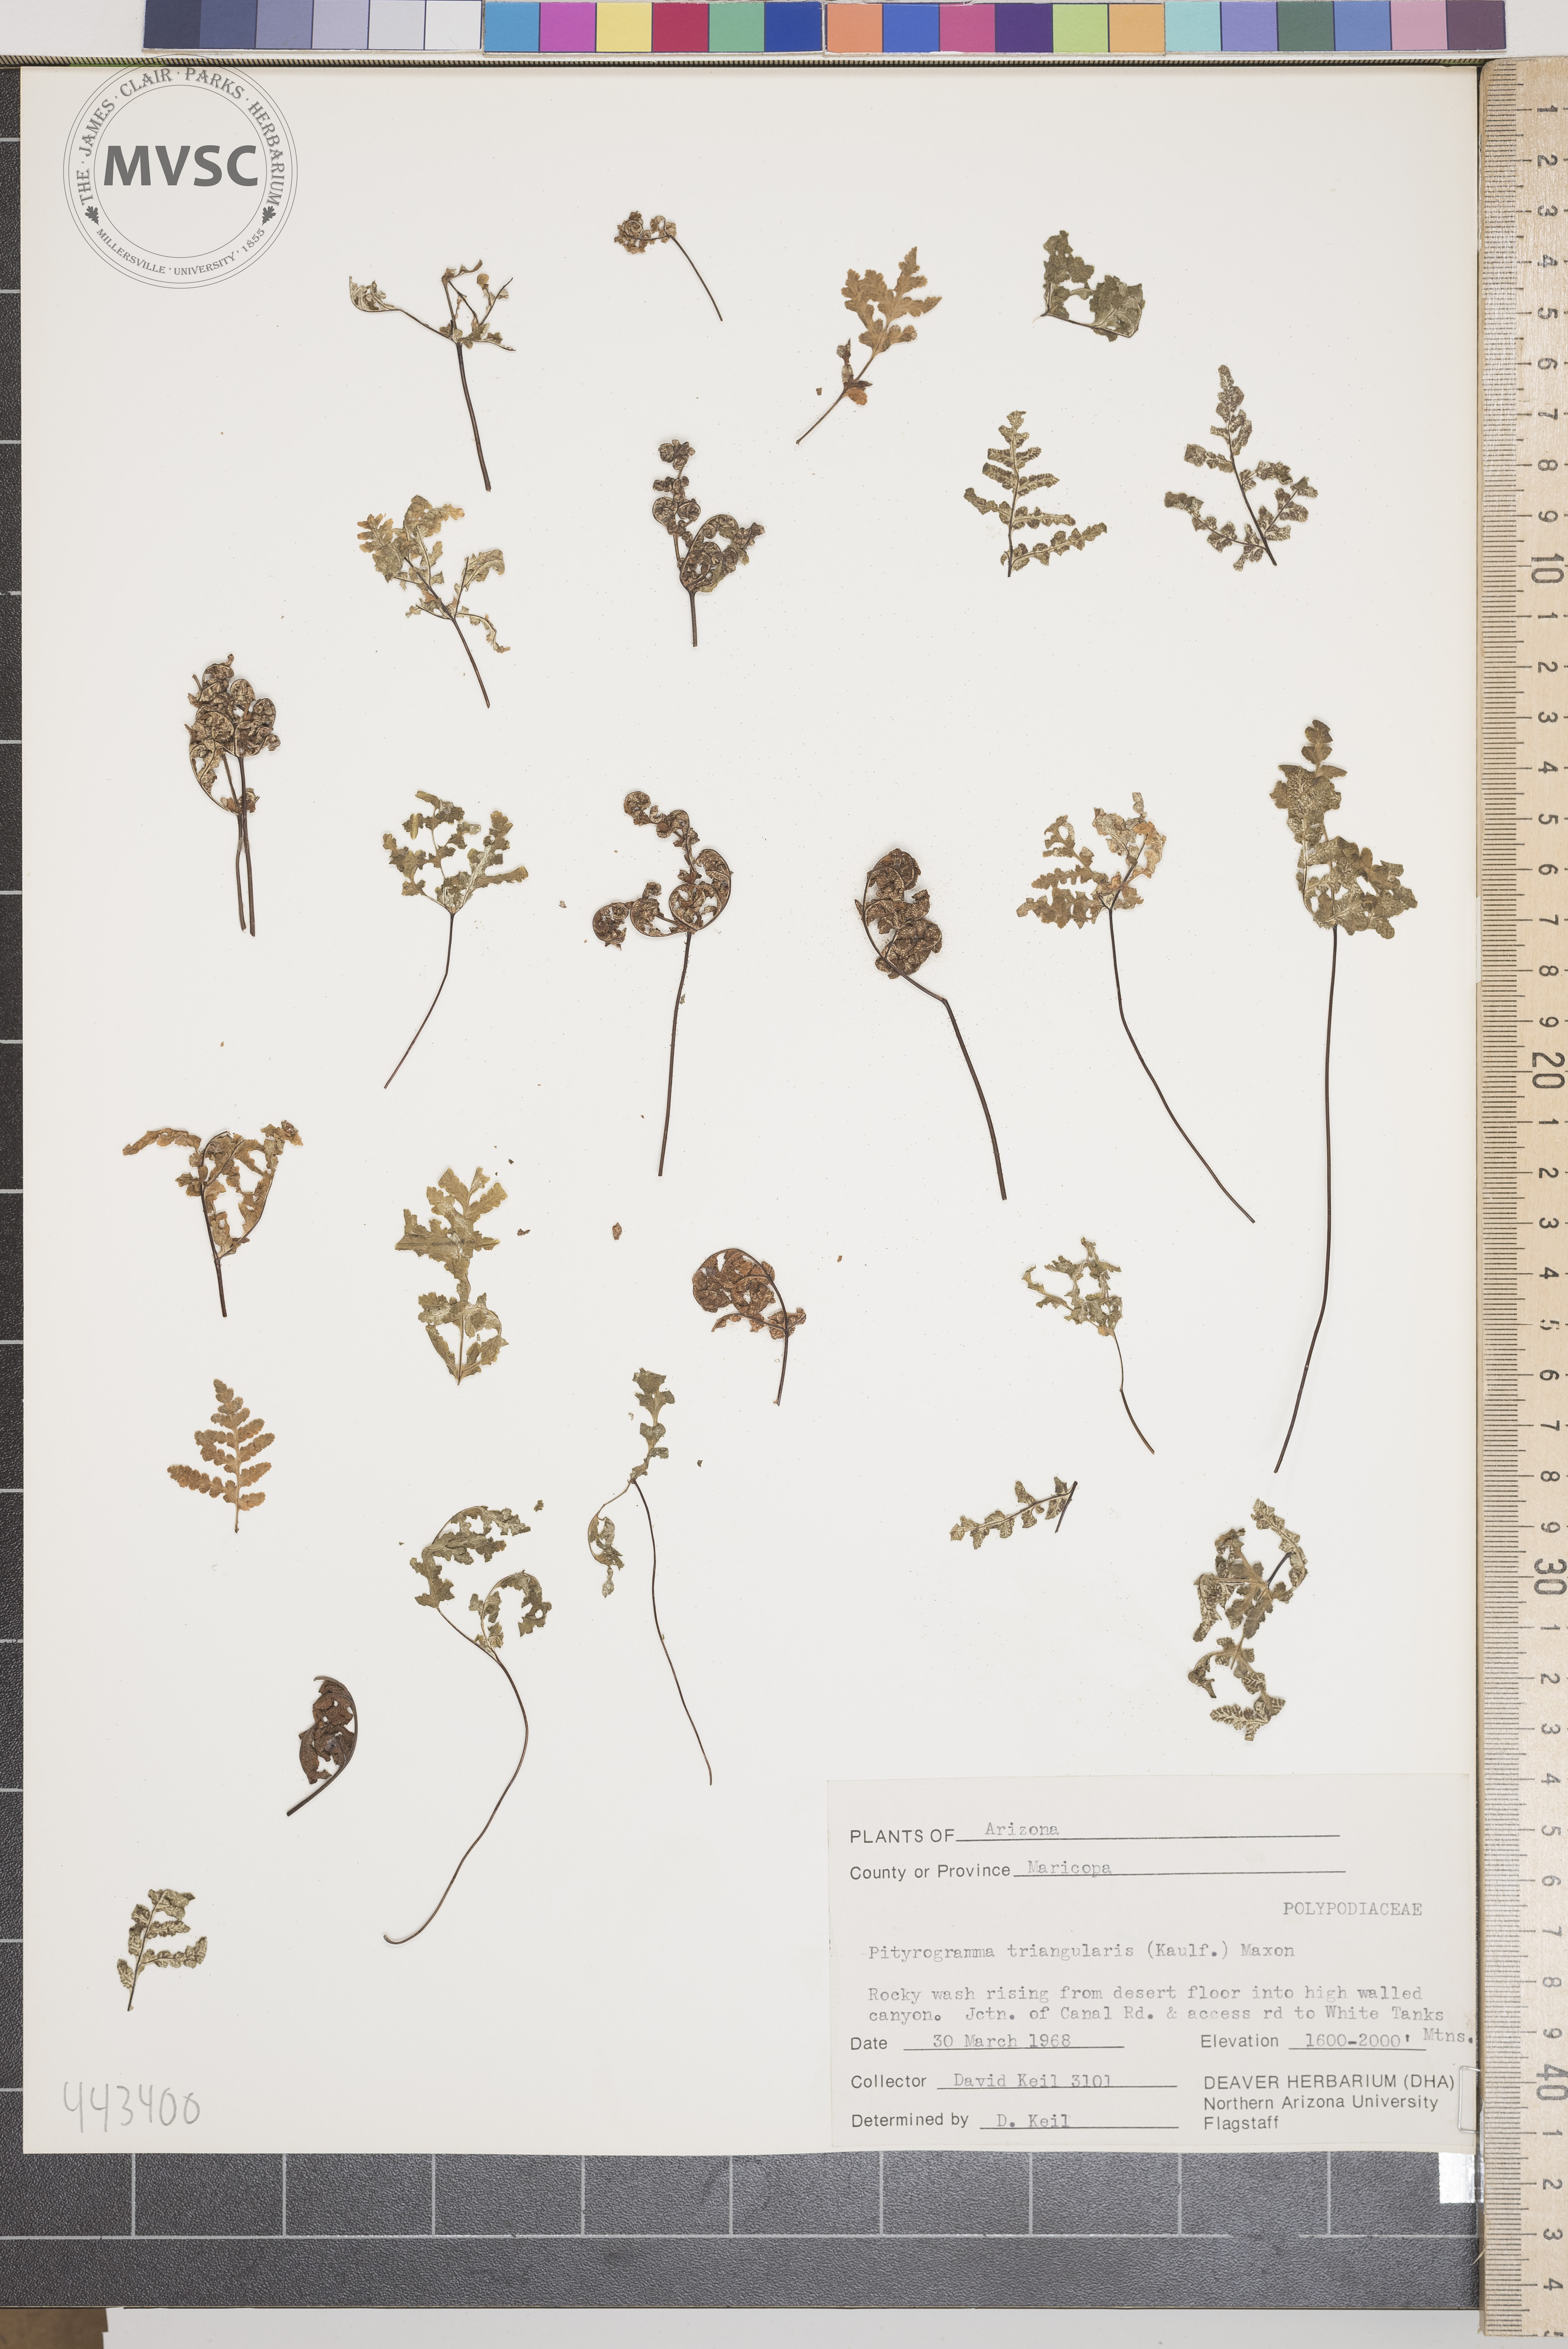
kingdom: Plantae
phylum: Tracheophyta
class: Polypodiopsida
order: Polypodiales
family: Pteridaceae
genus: Pentagramma
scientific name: Pentagramma triangularis
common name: Gold fern
